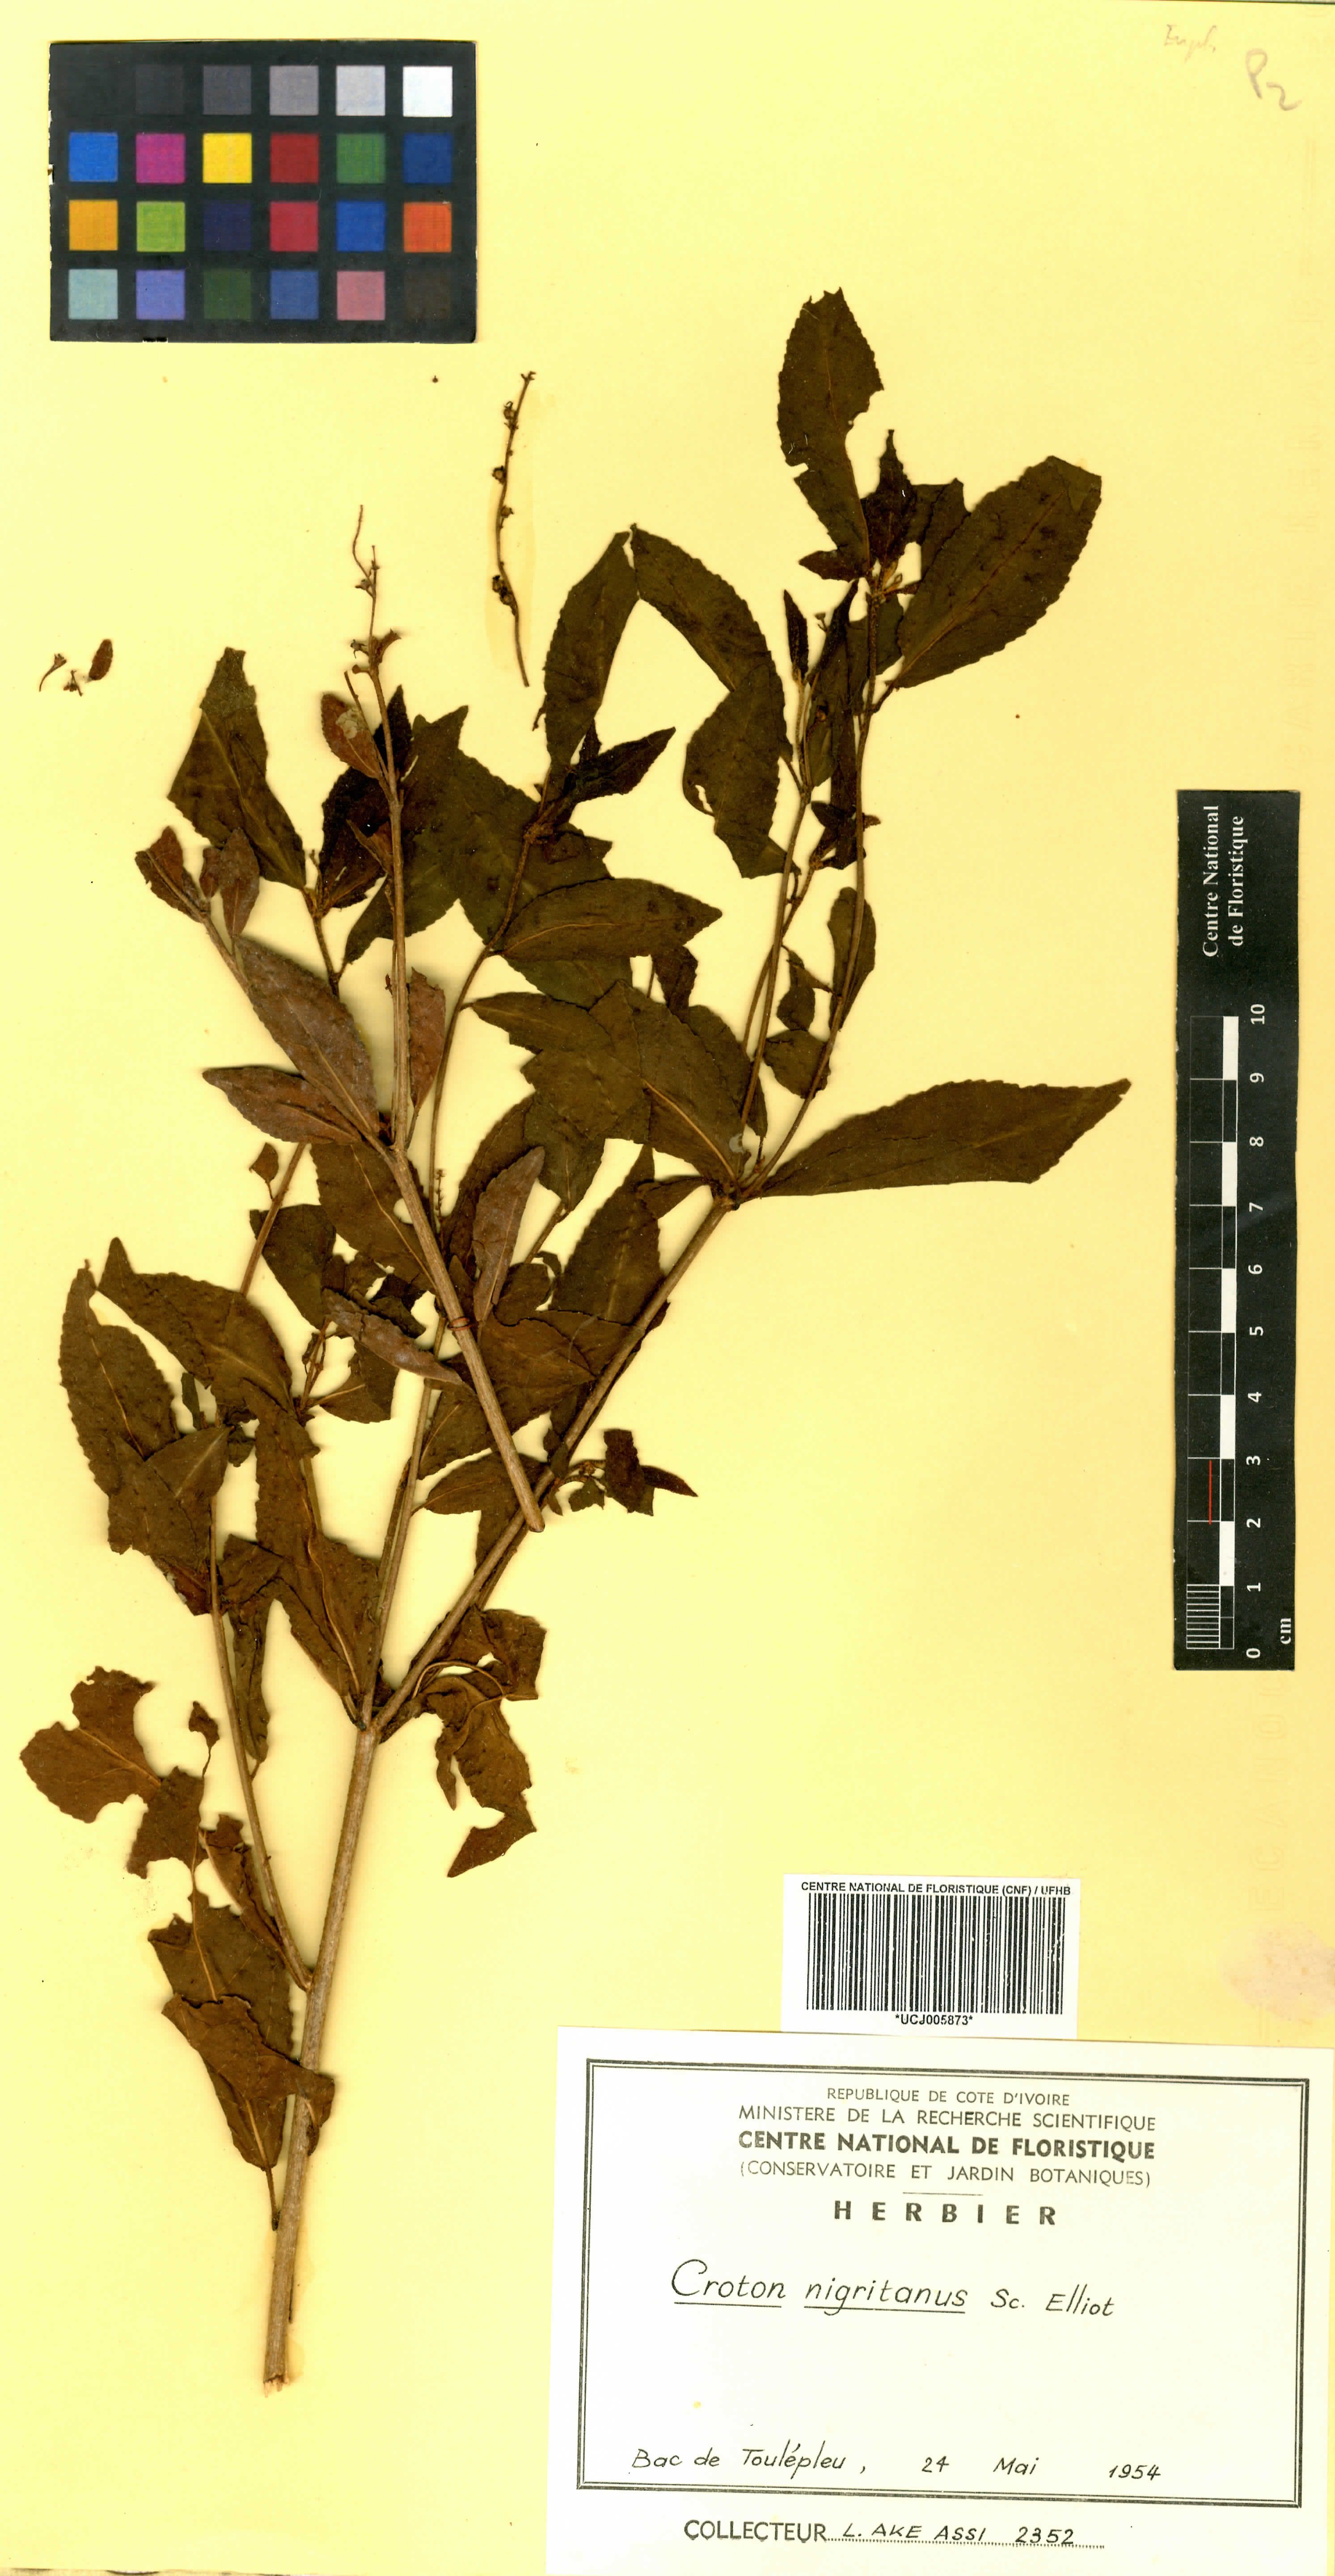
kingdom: Plantae
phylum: Tracheophyta
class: Magnoliopsida
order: Malpighiales
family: Euphorbiaceae
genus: Croton
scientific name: Croton nigritanus
